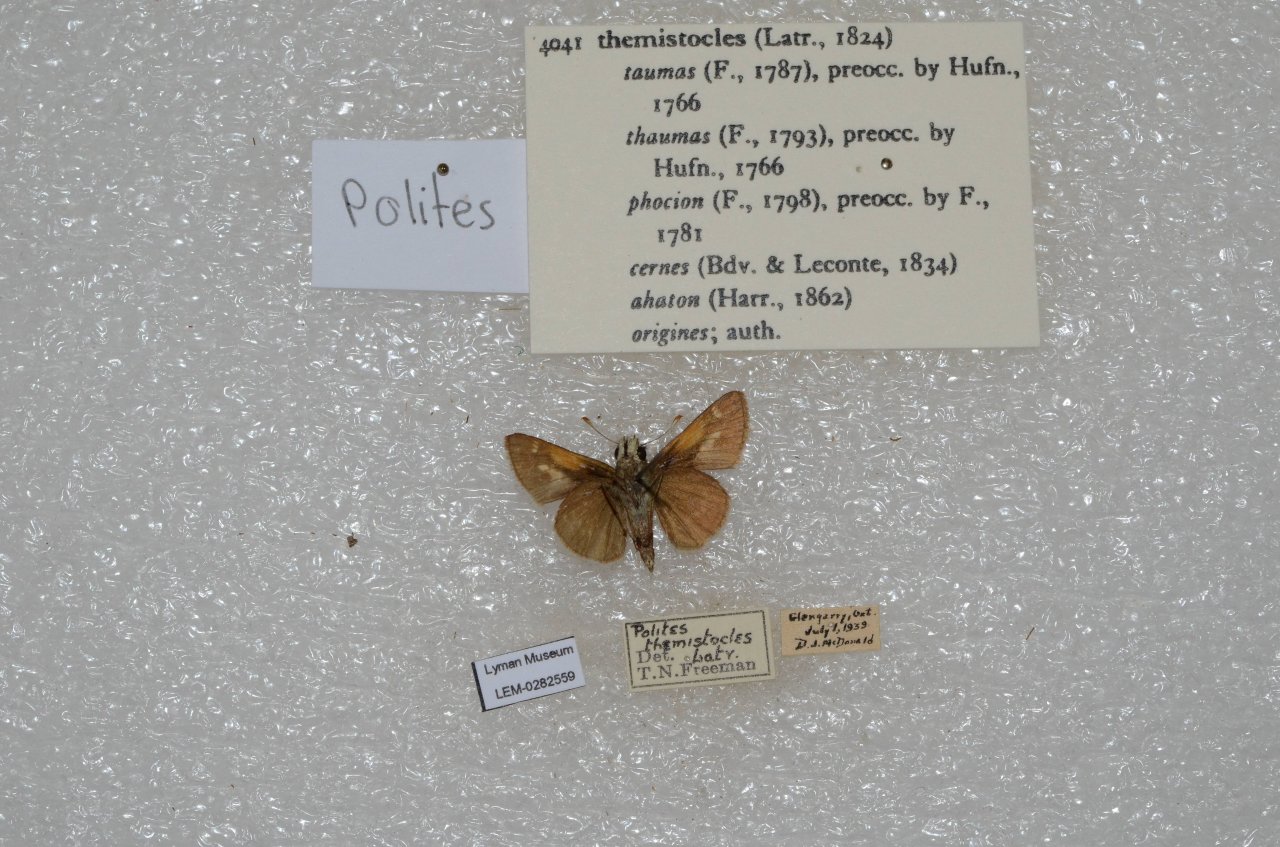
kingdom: Animalia
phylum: Arthropoda
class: Insecta
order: Lepidoptera
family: Hesperiidae
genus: Polites
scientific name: Polites themistocles
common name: Tawny-edged Skipper
